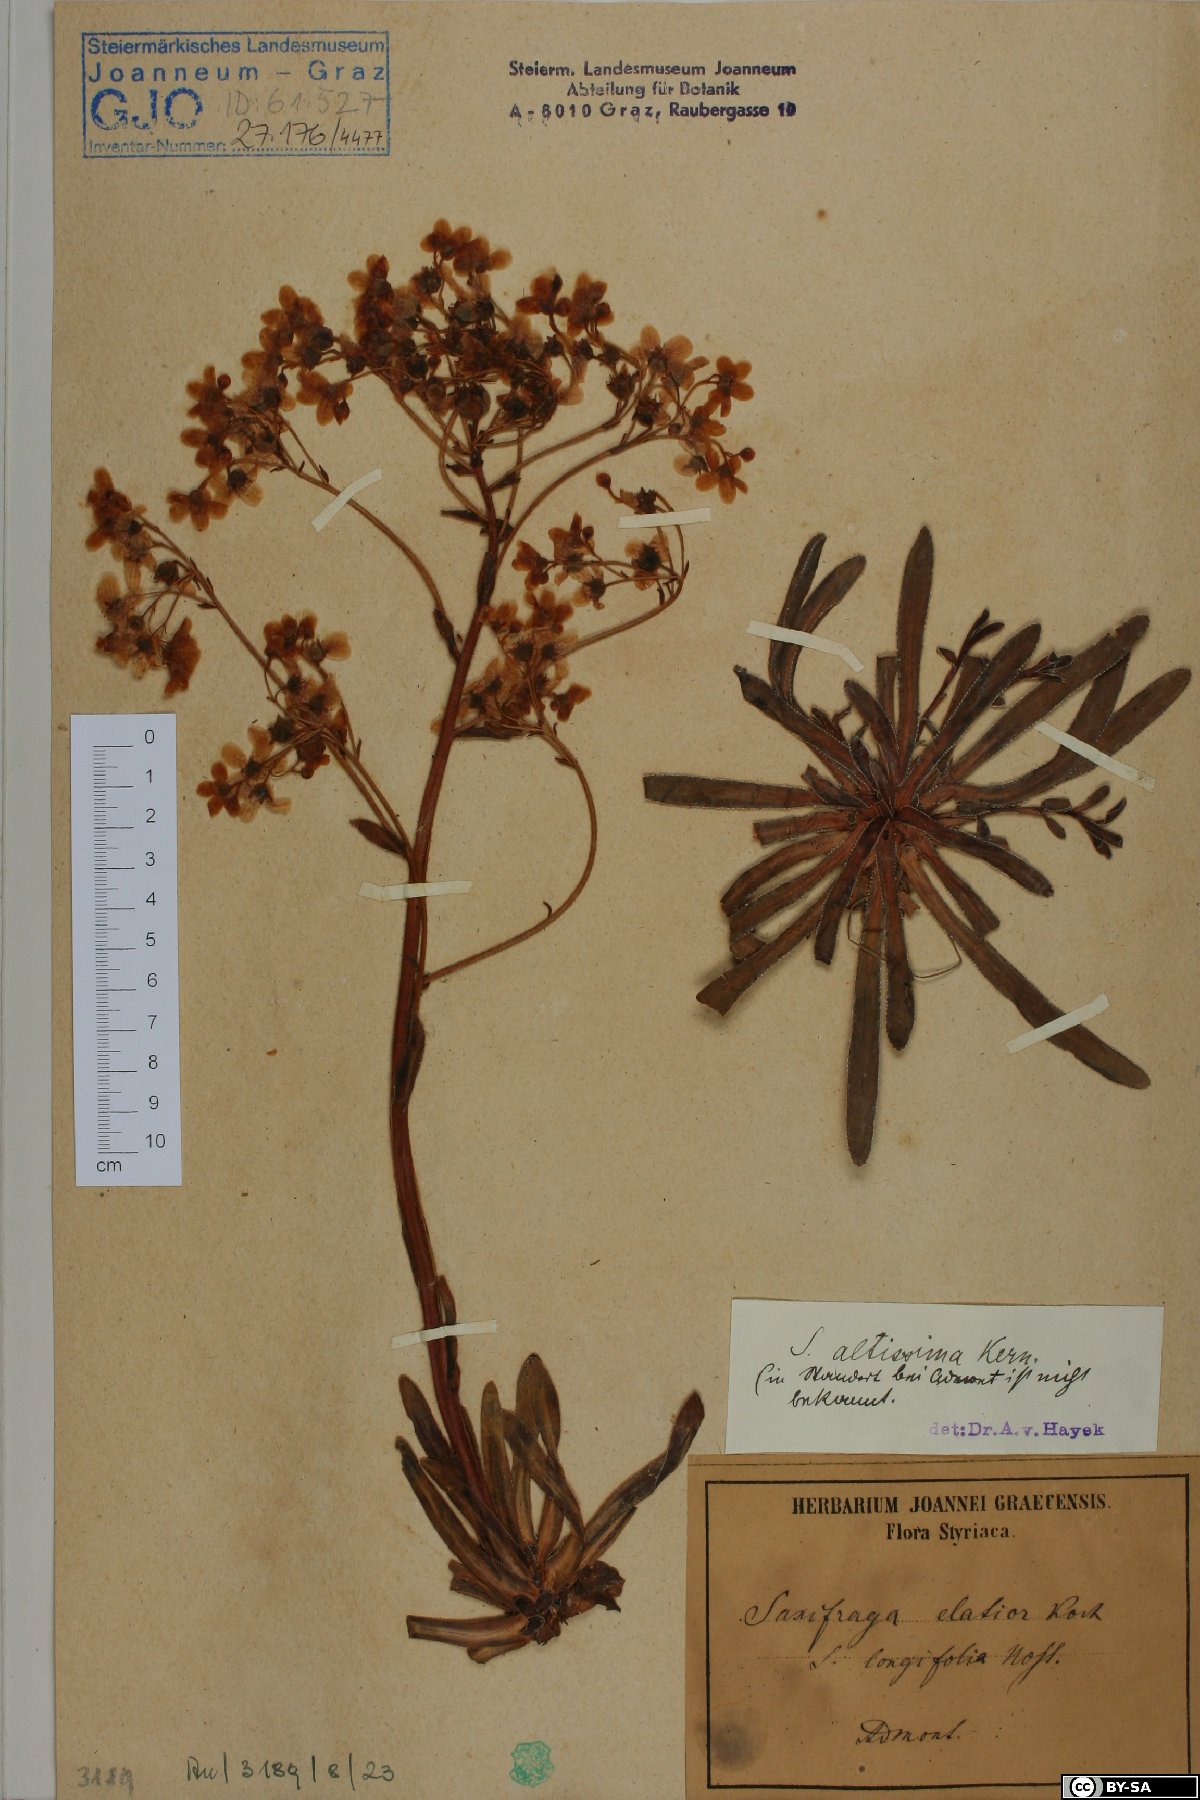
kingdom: Plantae
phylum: Tracheophyta
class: Magnoliopsida
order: Saxifragales
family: Saxifragaceae
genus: Saxifraga
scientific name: Saxifraga hostii
